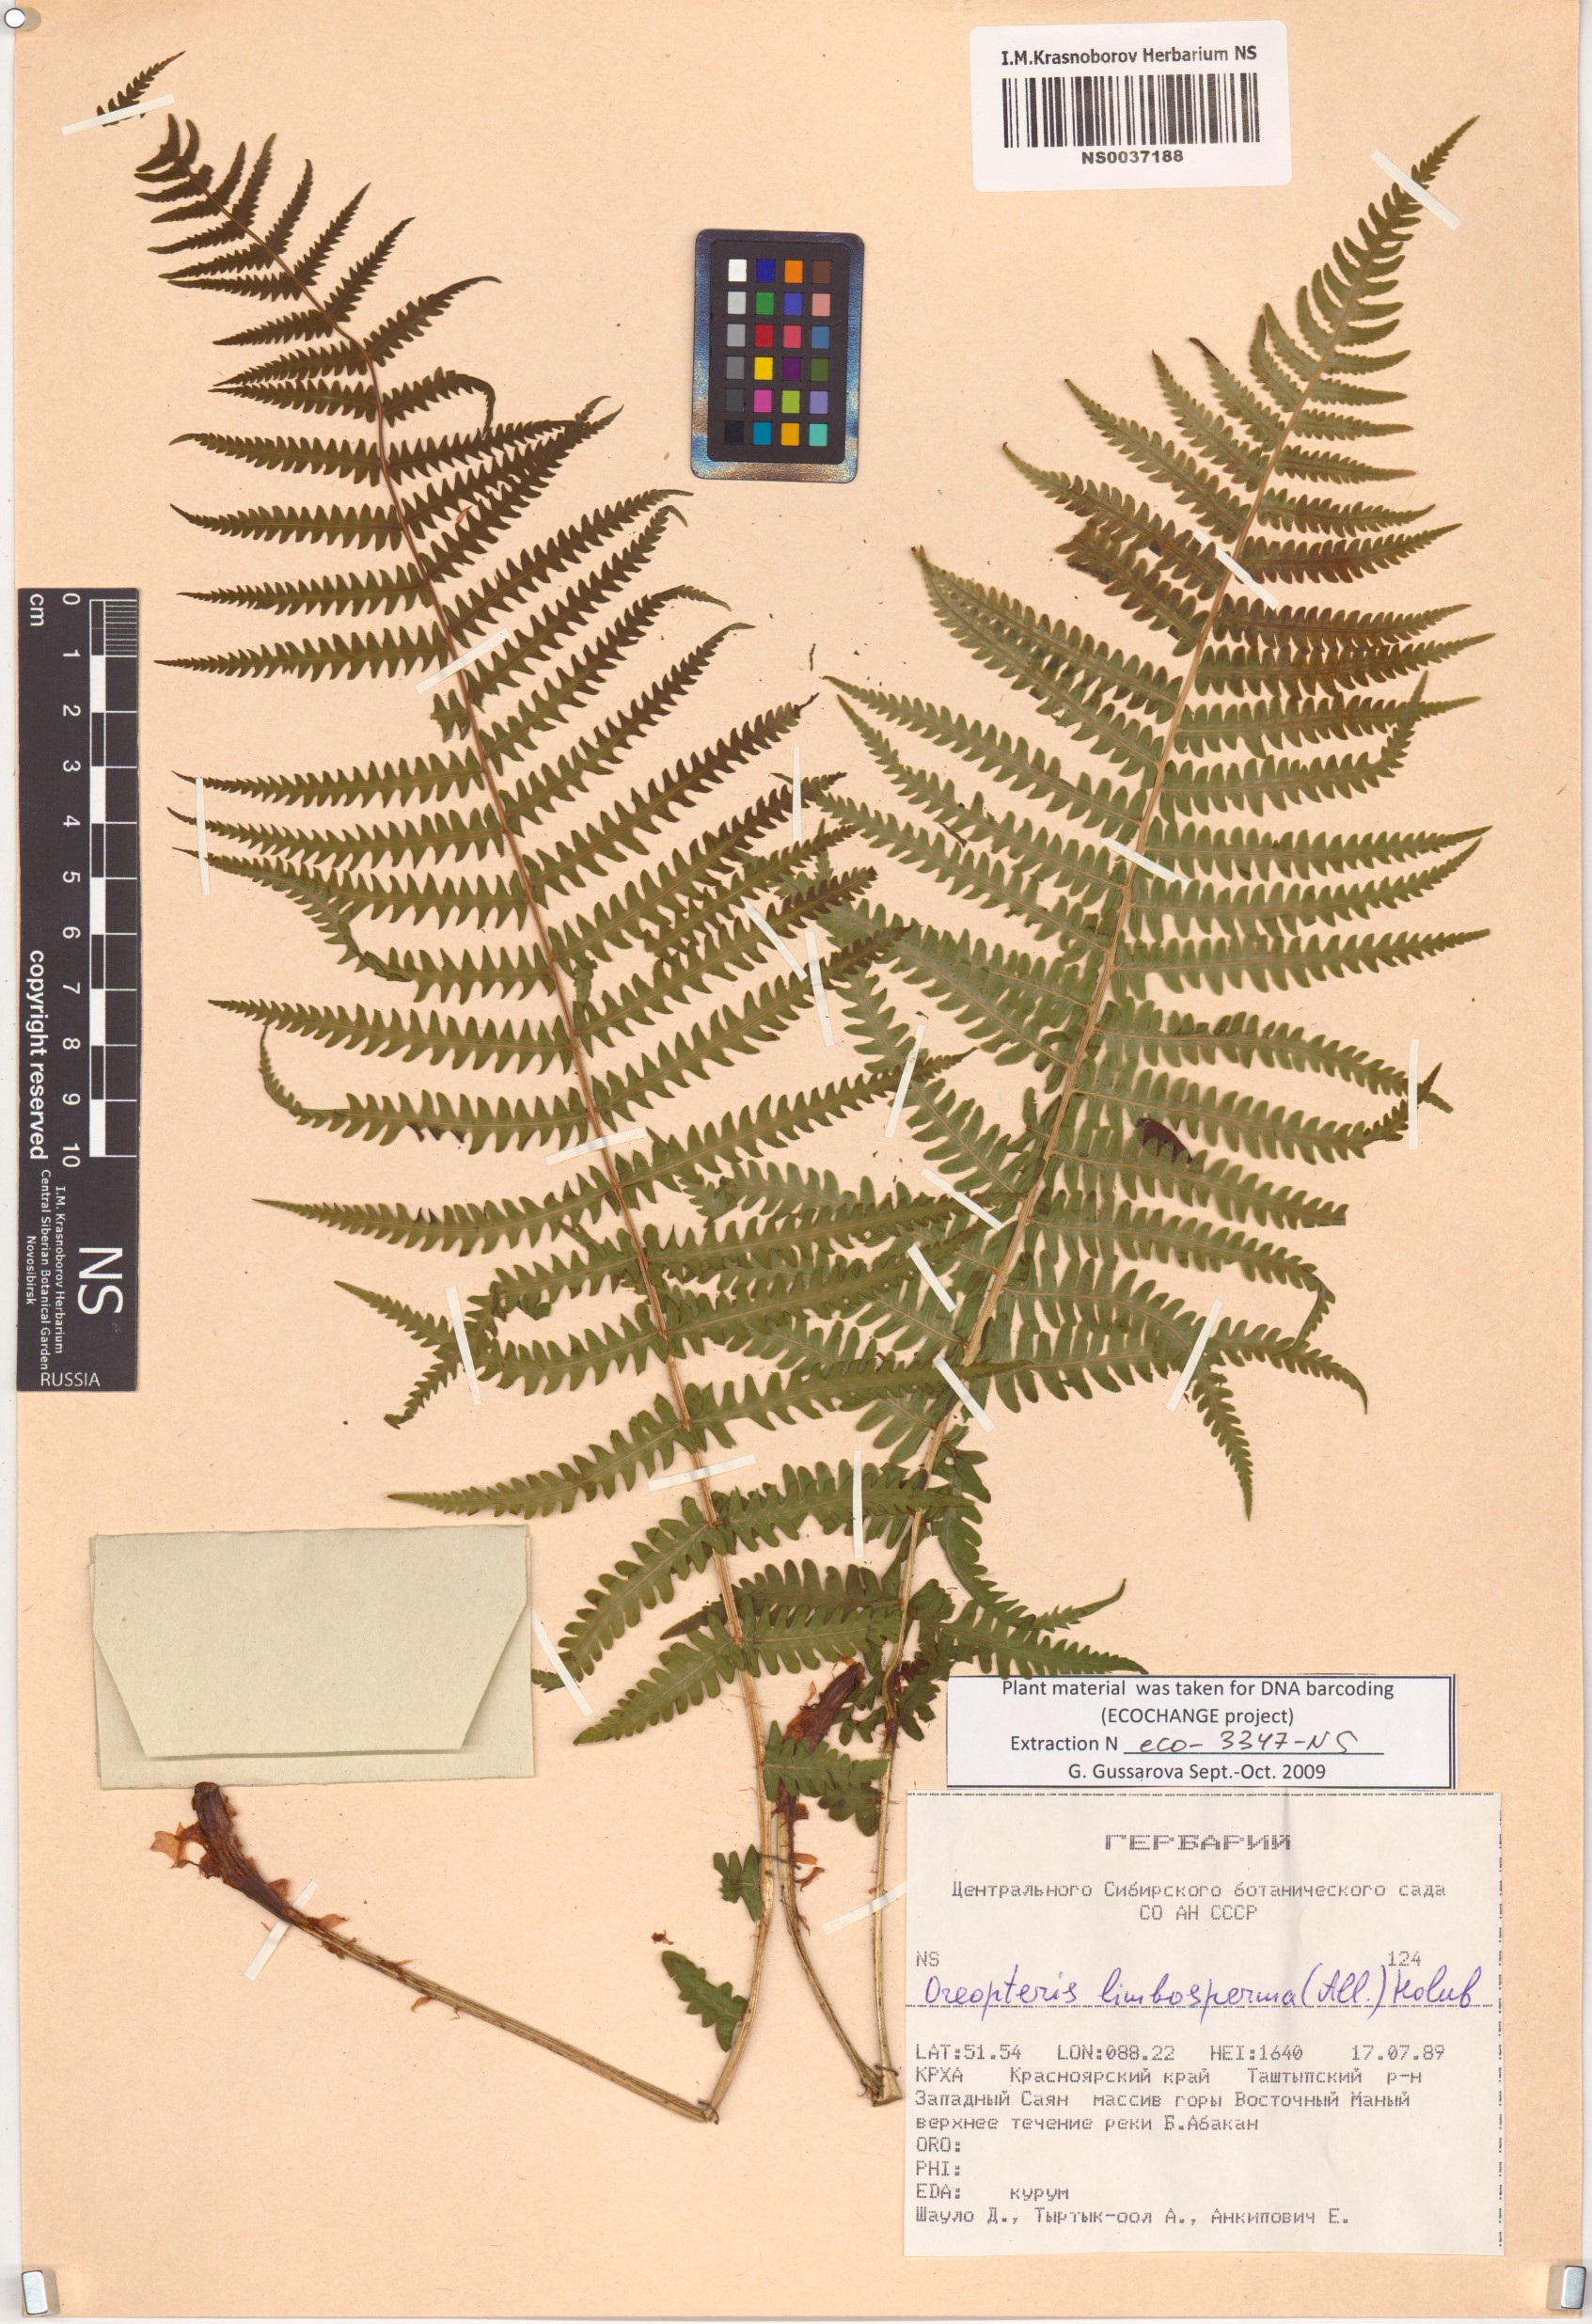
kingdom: Plantae
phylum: Tracheophyta
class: Polypodiopsida
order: Polypodiales
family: Thelypteridaceae
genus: Oreopteris
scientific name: Oreopteris limbosperma
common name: Lemon-scented fern
